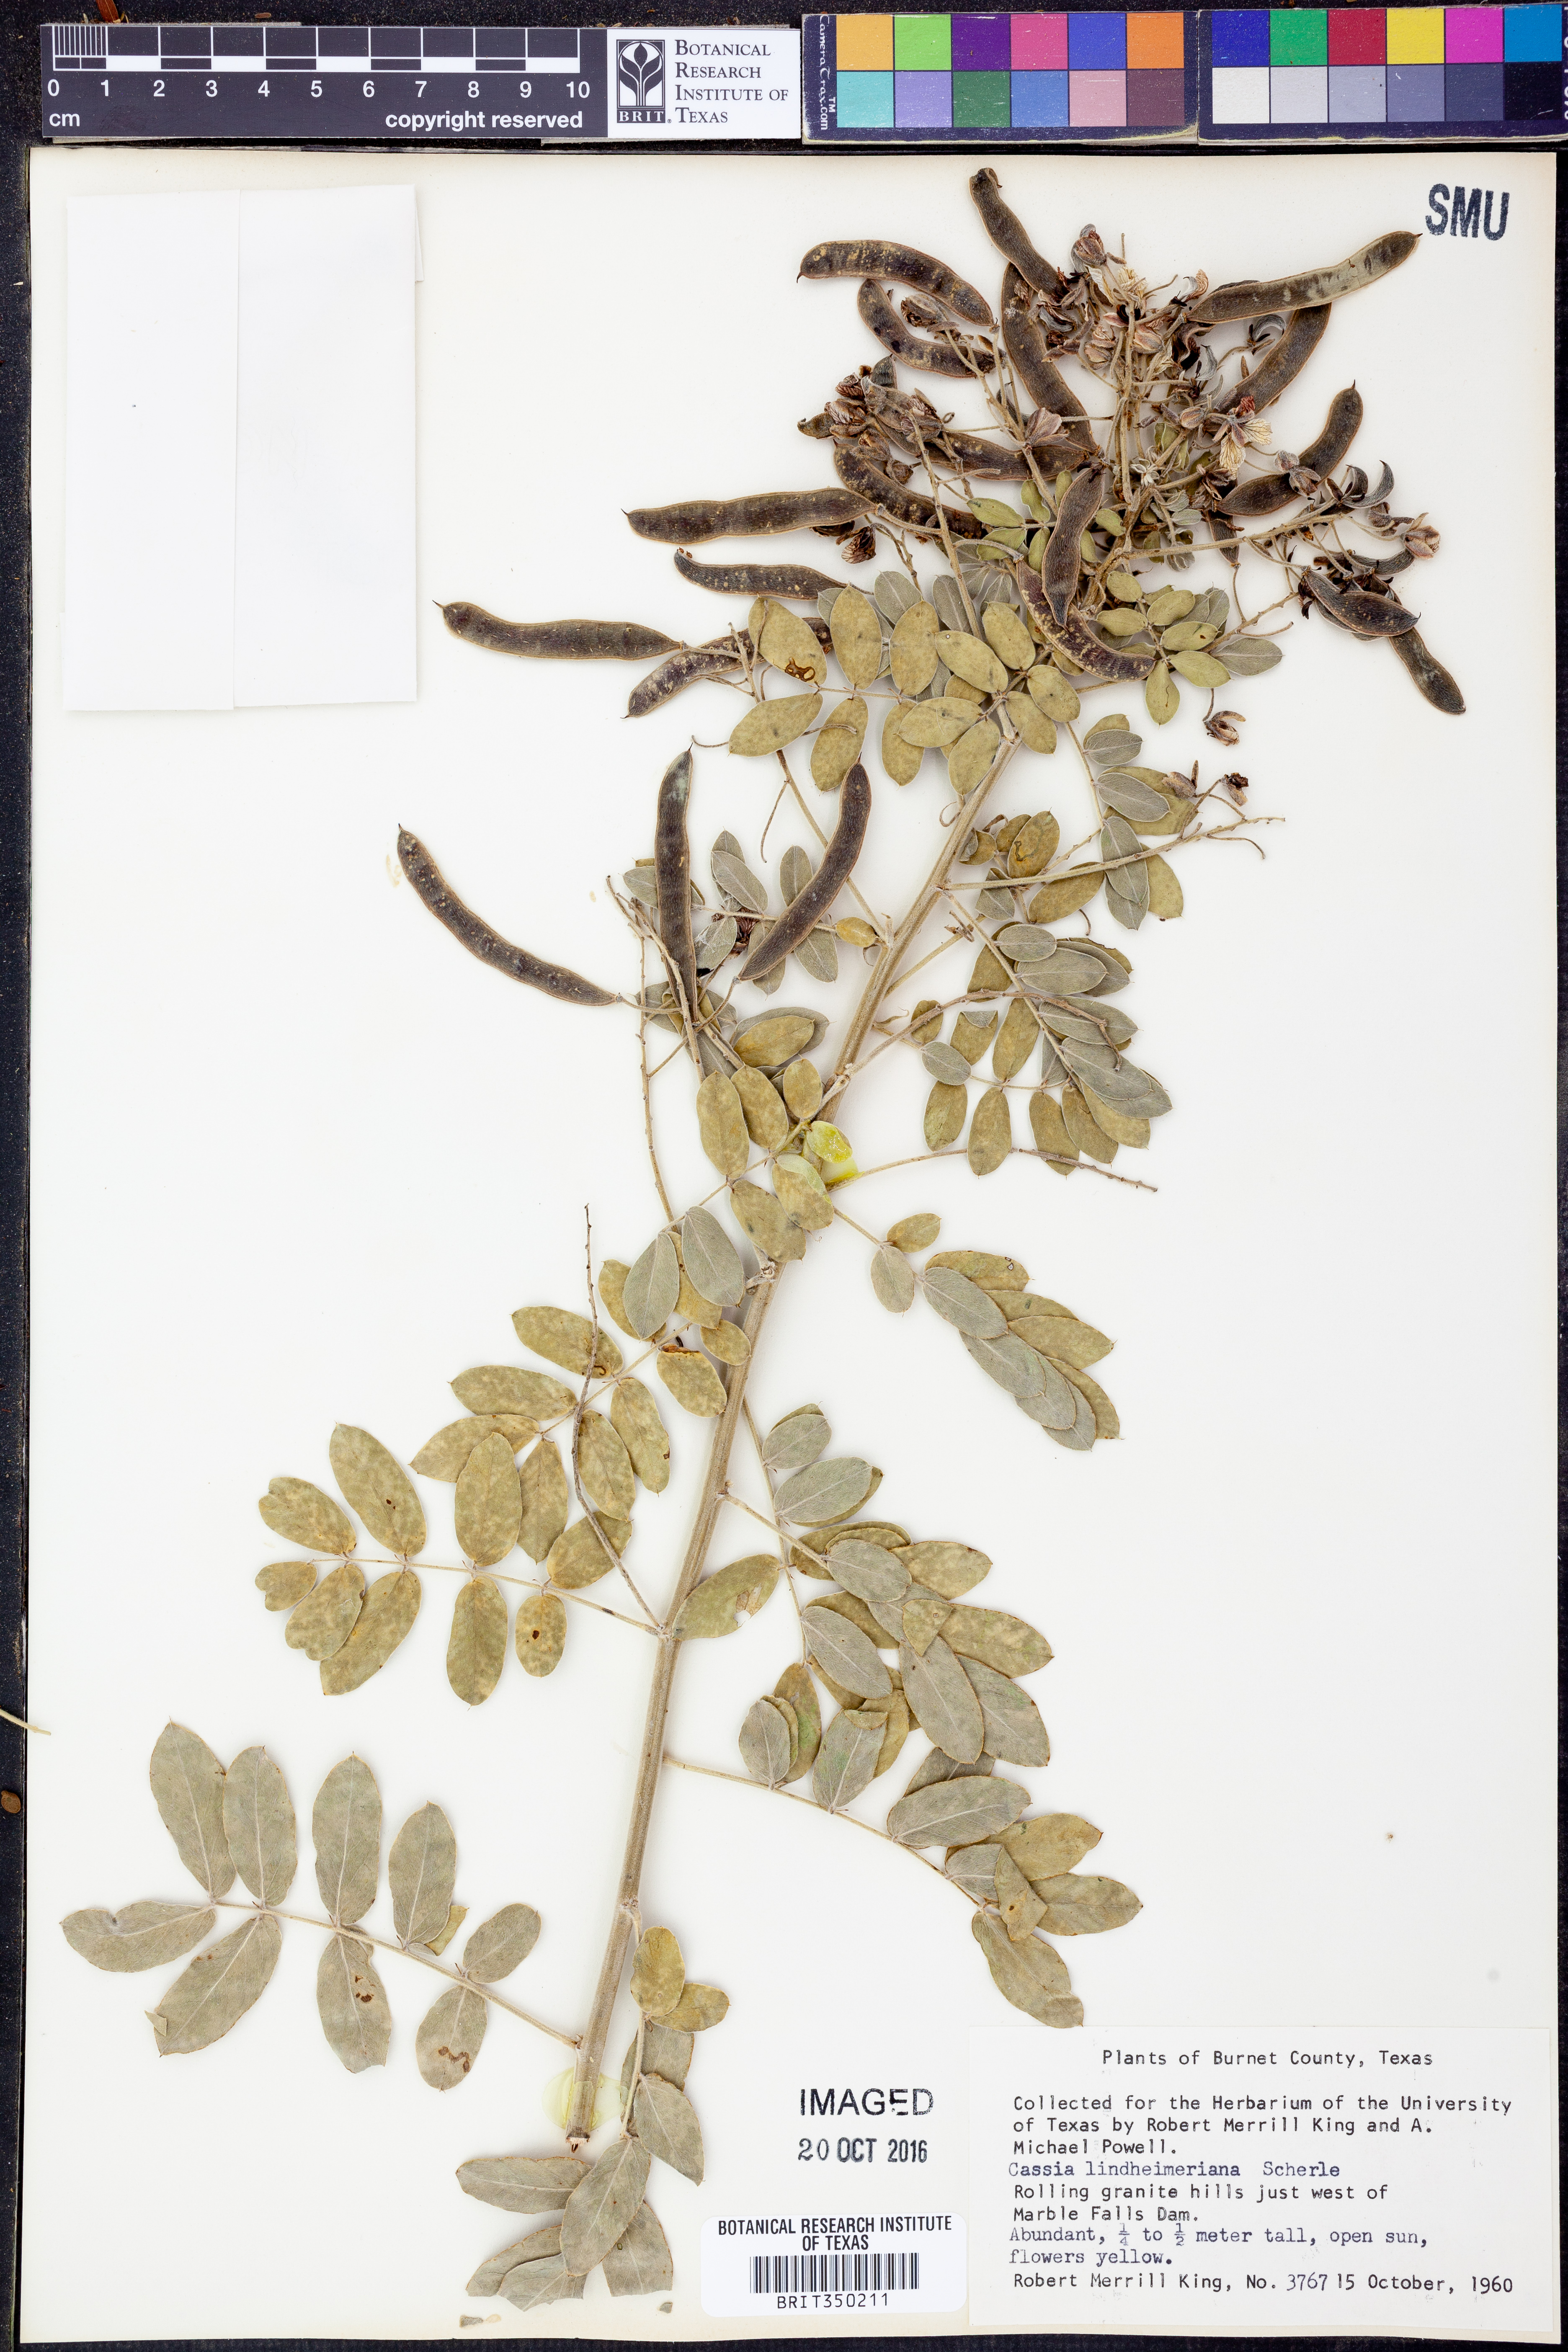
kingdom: Plantae
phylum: Tracheophyta
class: Magnoliopsida
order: Fabales
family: Fabaceae
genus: Senna
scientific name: Senna lindheimeriana
